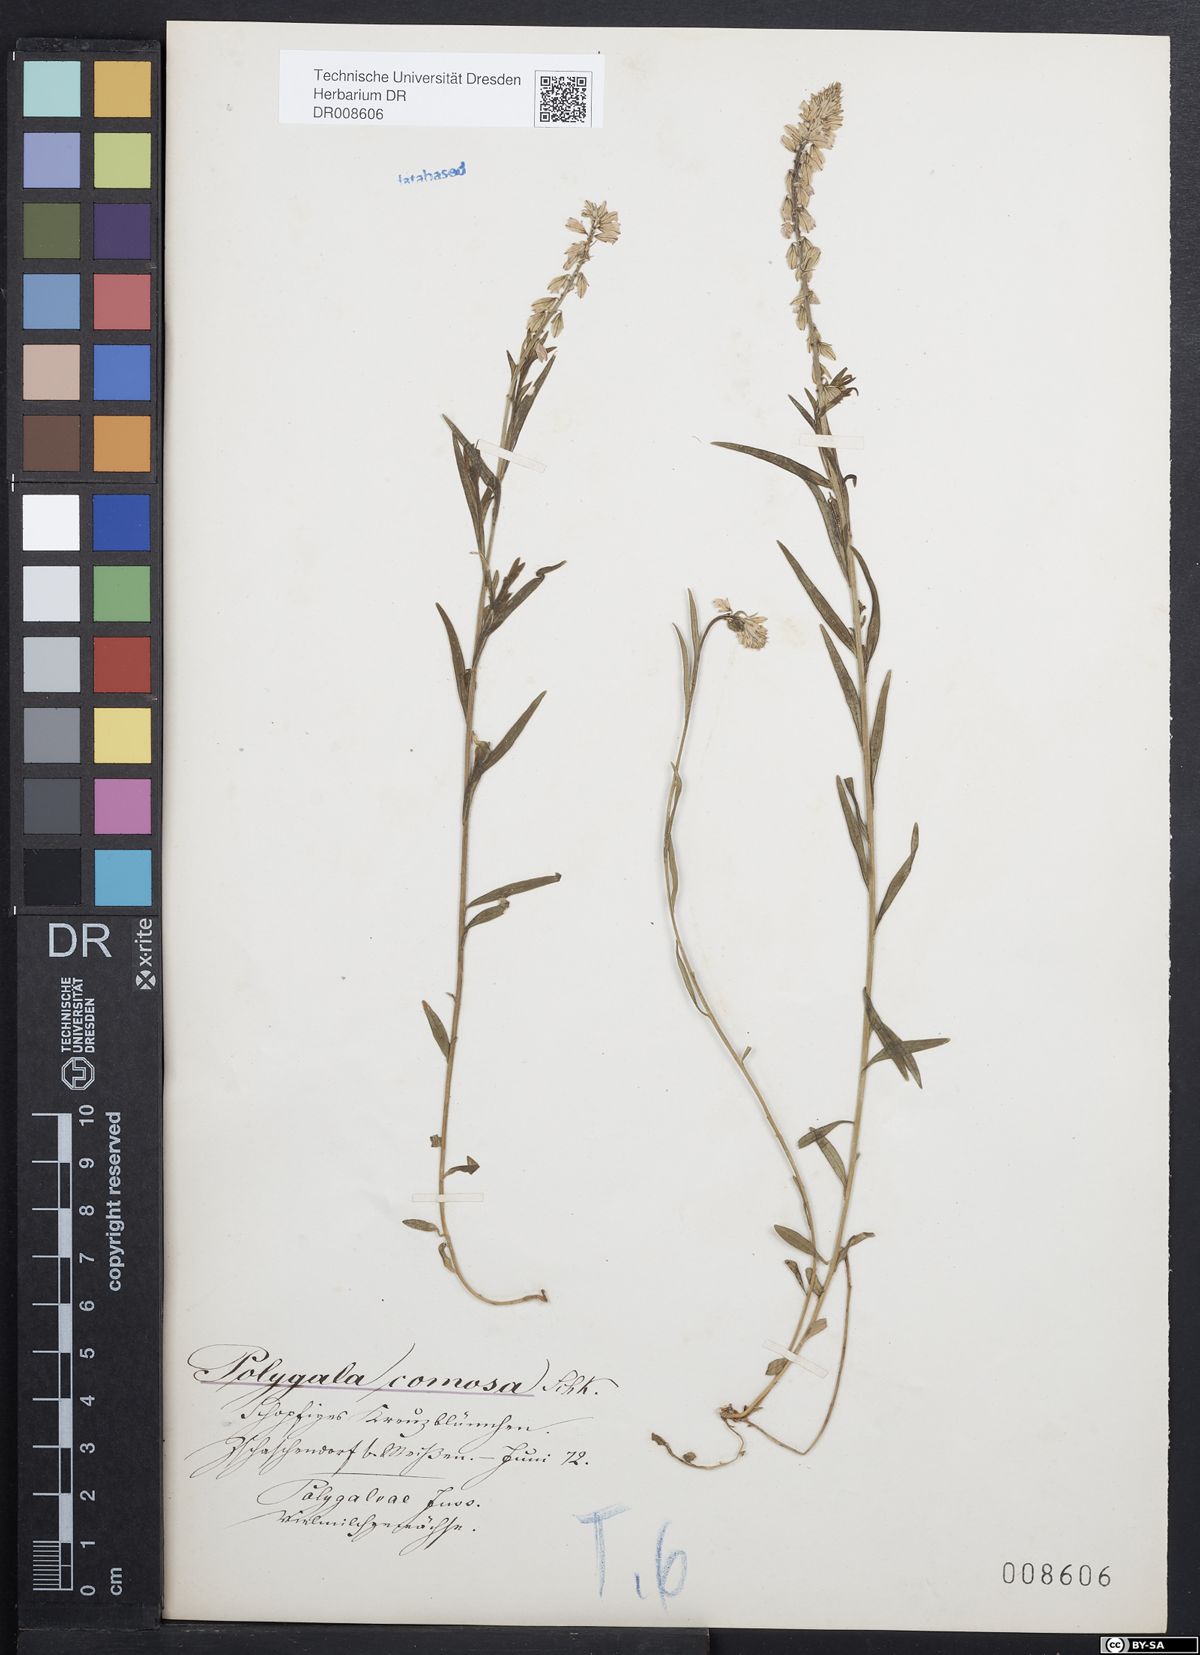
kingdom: Plantae
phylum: Tracheophyta
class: Magnoliopsida
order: Fabales
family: Polygalaceae
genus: Polygala
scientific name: Polygala comosa
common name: Tufted milkwort
